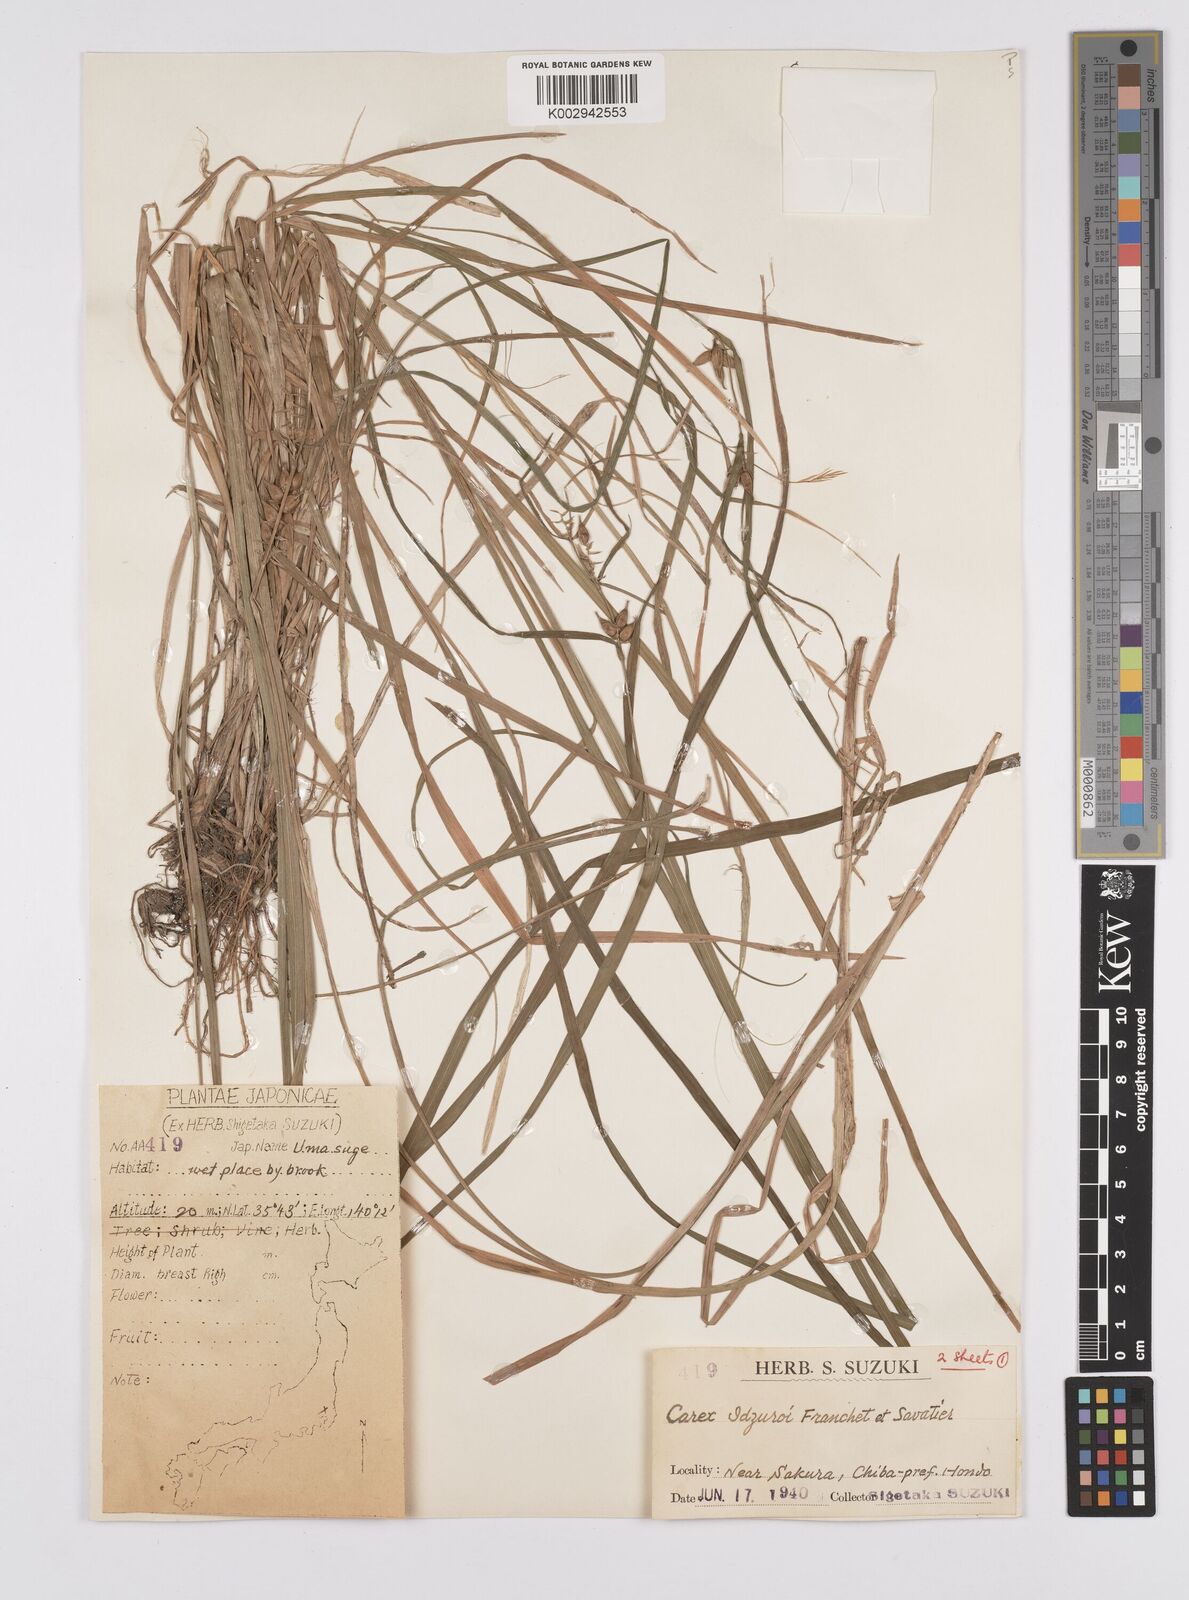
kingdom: Plantae
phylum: Tracheophyta
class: Liliopsida
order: Poales
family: Cyperaceae
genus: Carex
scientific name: Carex idzuroei
